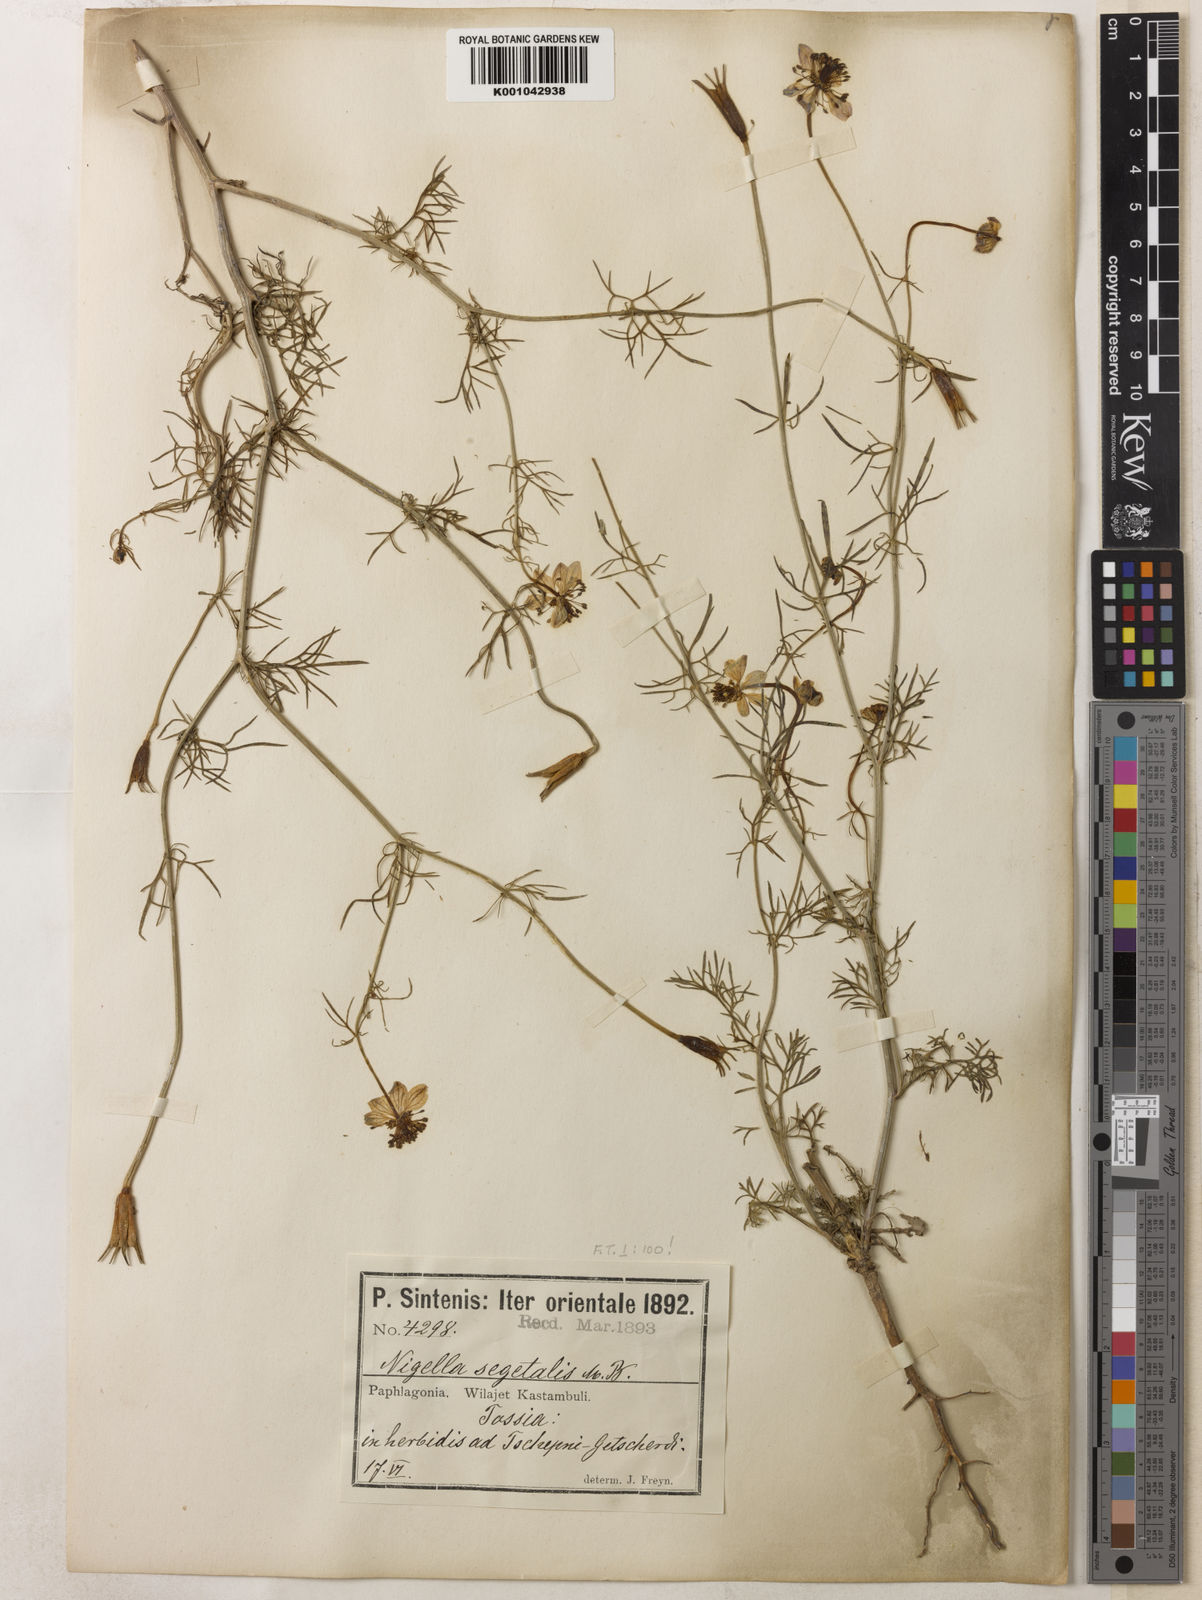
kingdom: Plantae
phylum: Tracheophyta
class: Magnoliopsida
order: Ranunculales
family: Ranunculaceae
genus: Nigella
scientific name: Nigella segetalis
